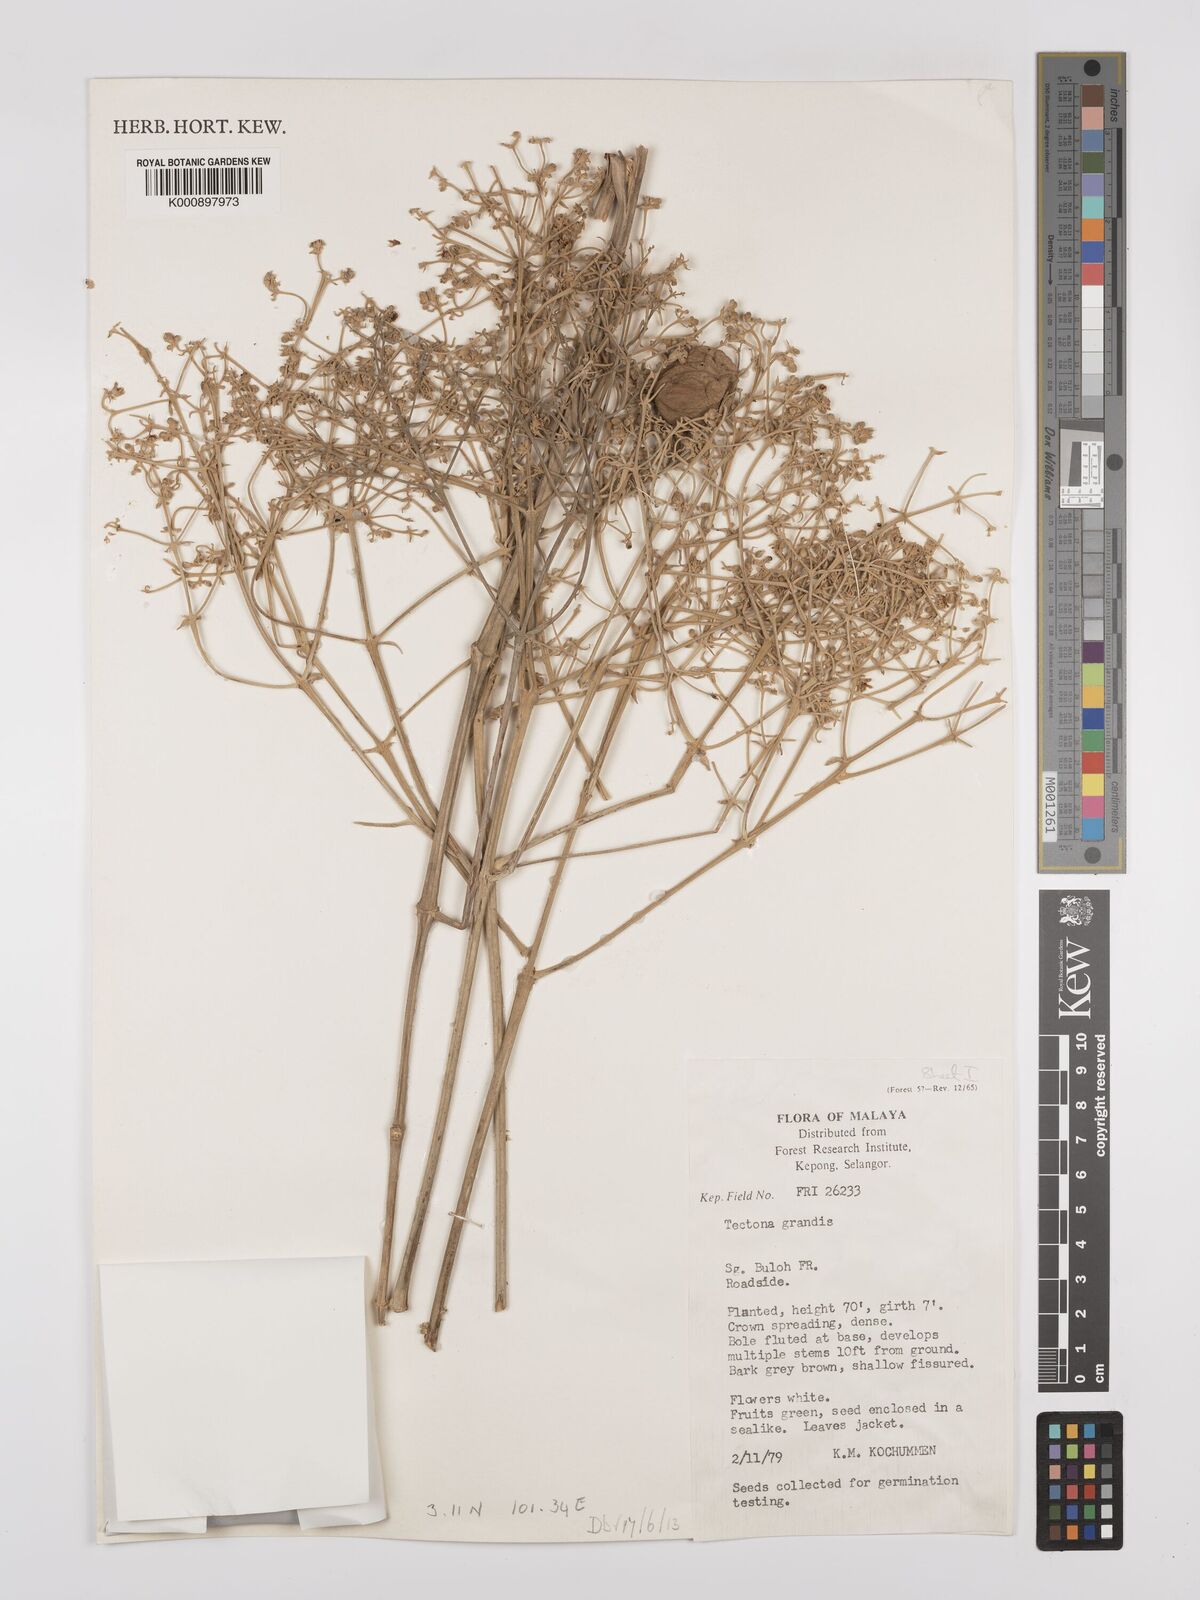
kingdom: Plantae
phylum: Tracheophyta
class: Magnoliopsida
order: Lamiales
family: Lamiaceae
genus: Tectona
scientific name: Tectona grandis
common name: Teak
